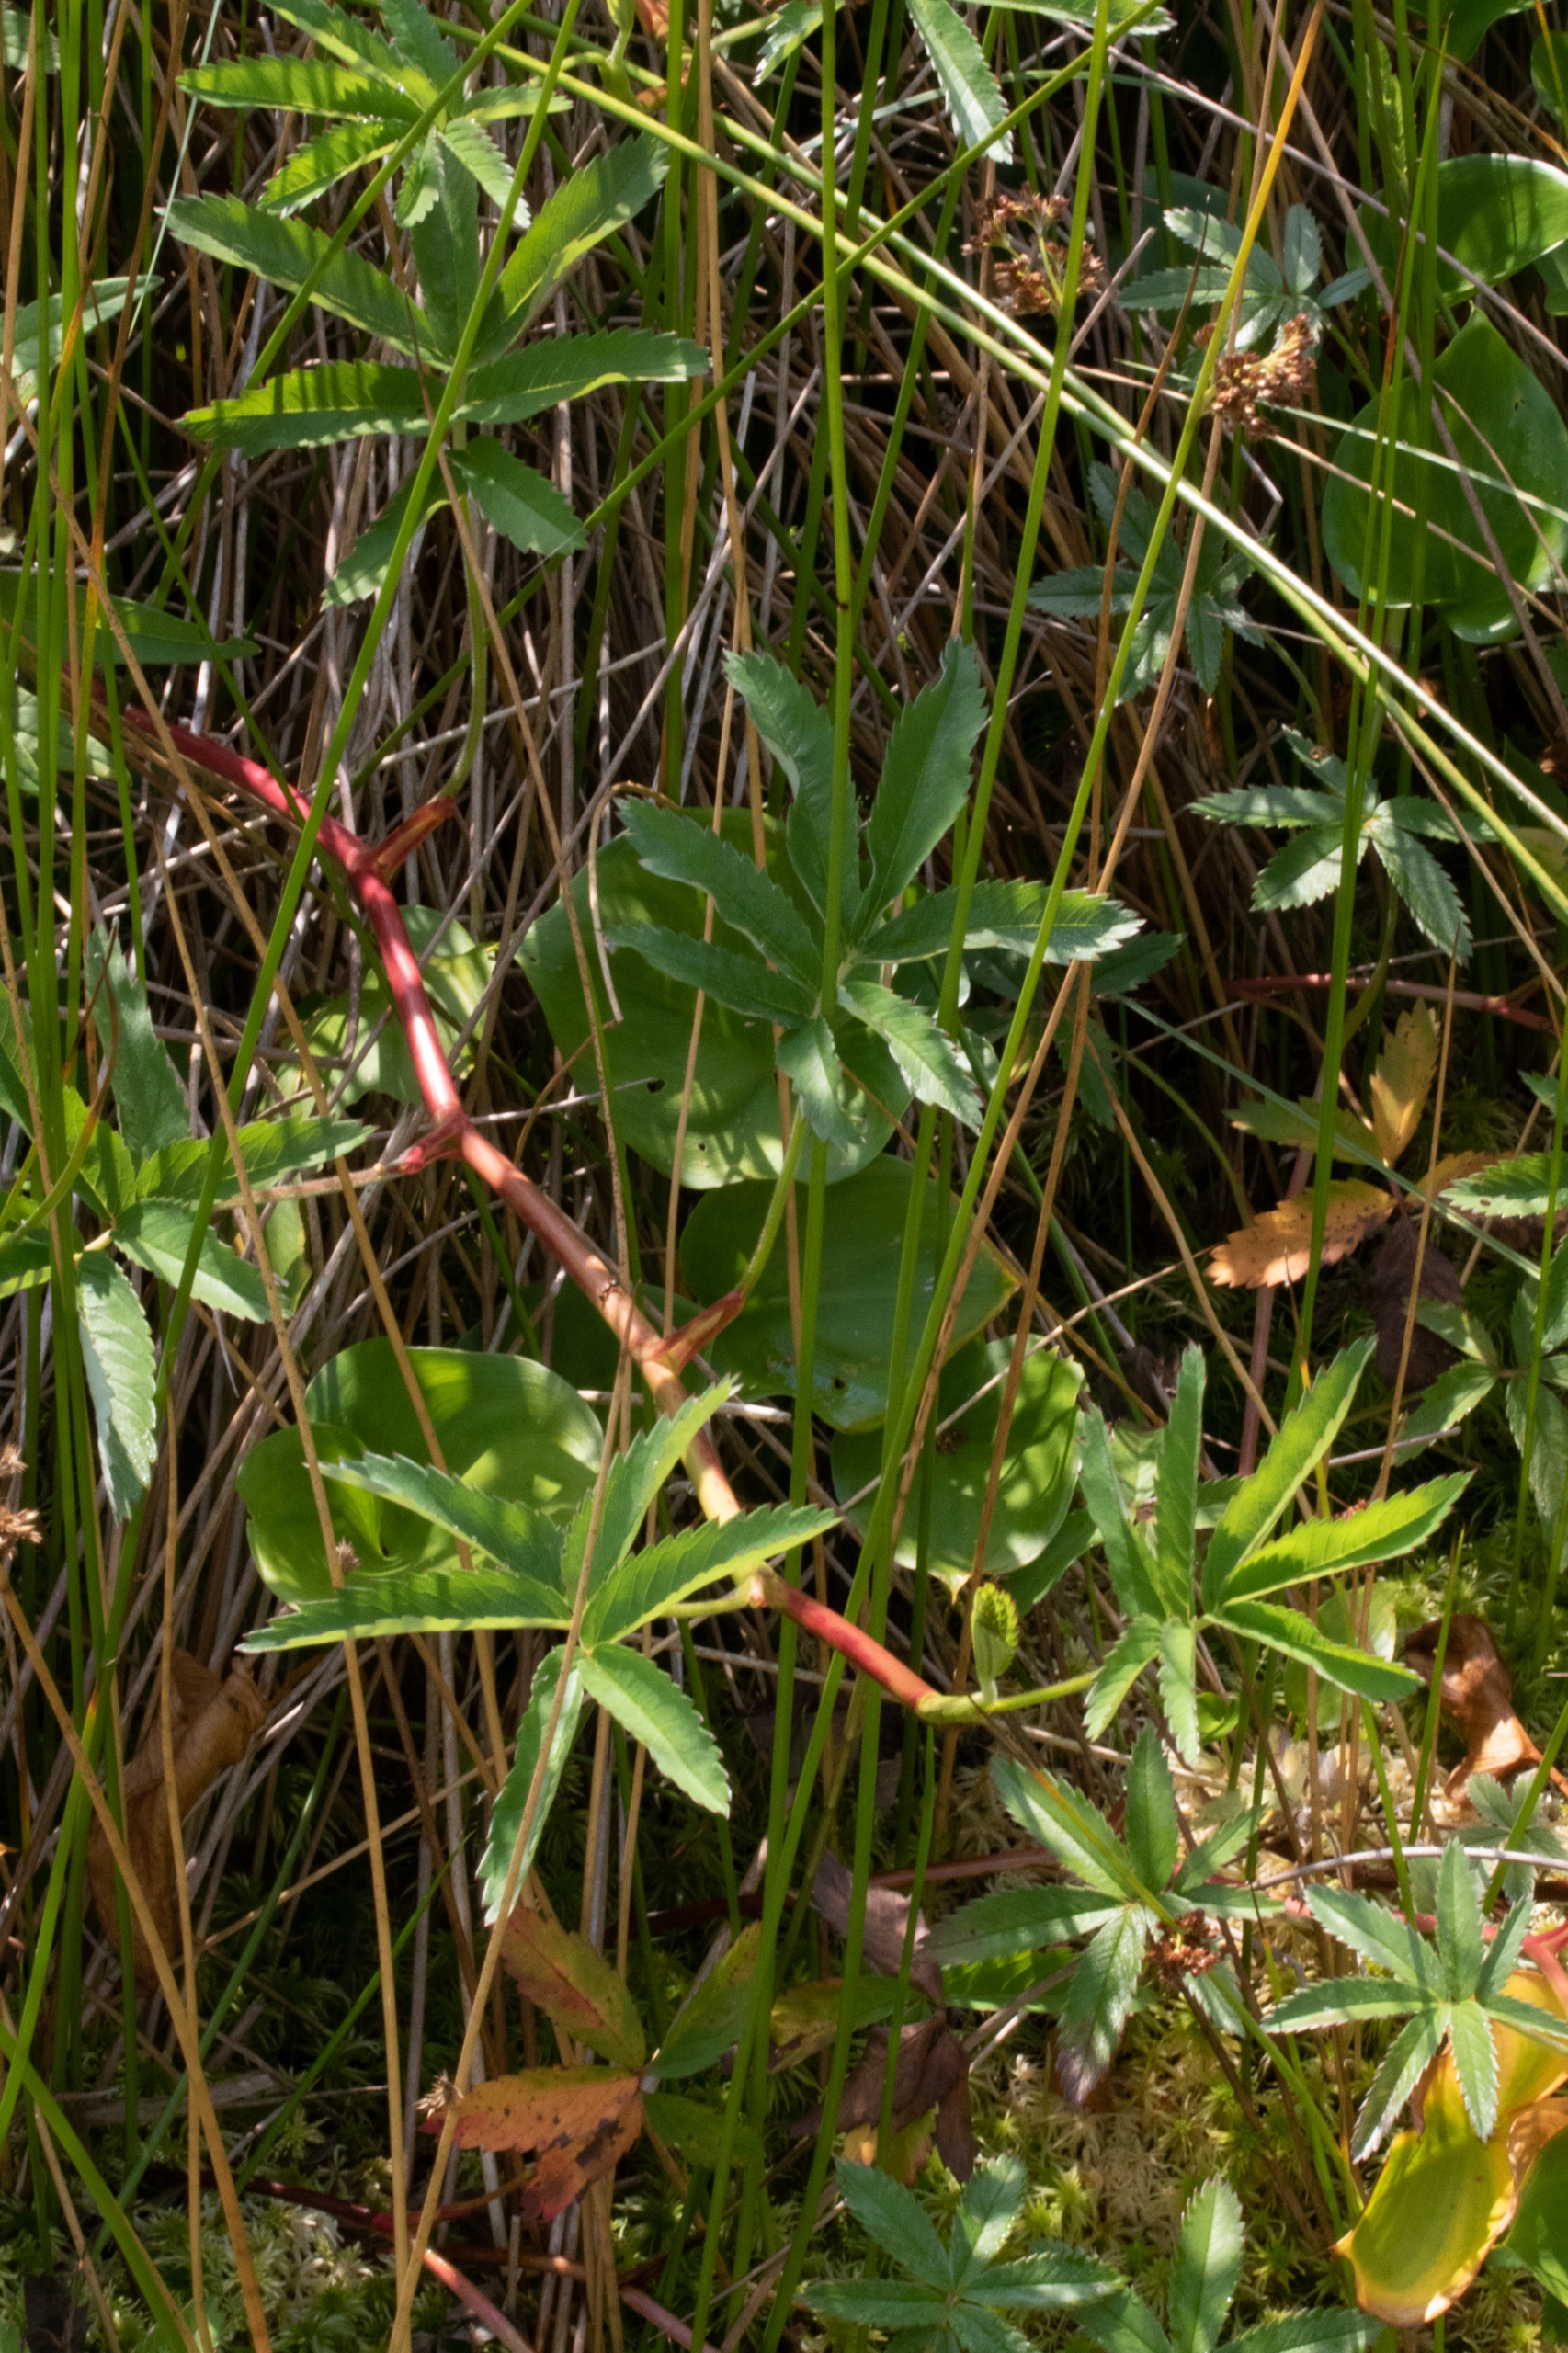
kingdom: Plantae
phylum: Tracheophyta
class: Magnoliopsida
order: Rosales
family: Rosaceae
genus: Comarum
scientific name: Comarum palustre
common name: Kragefod
